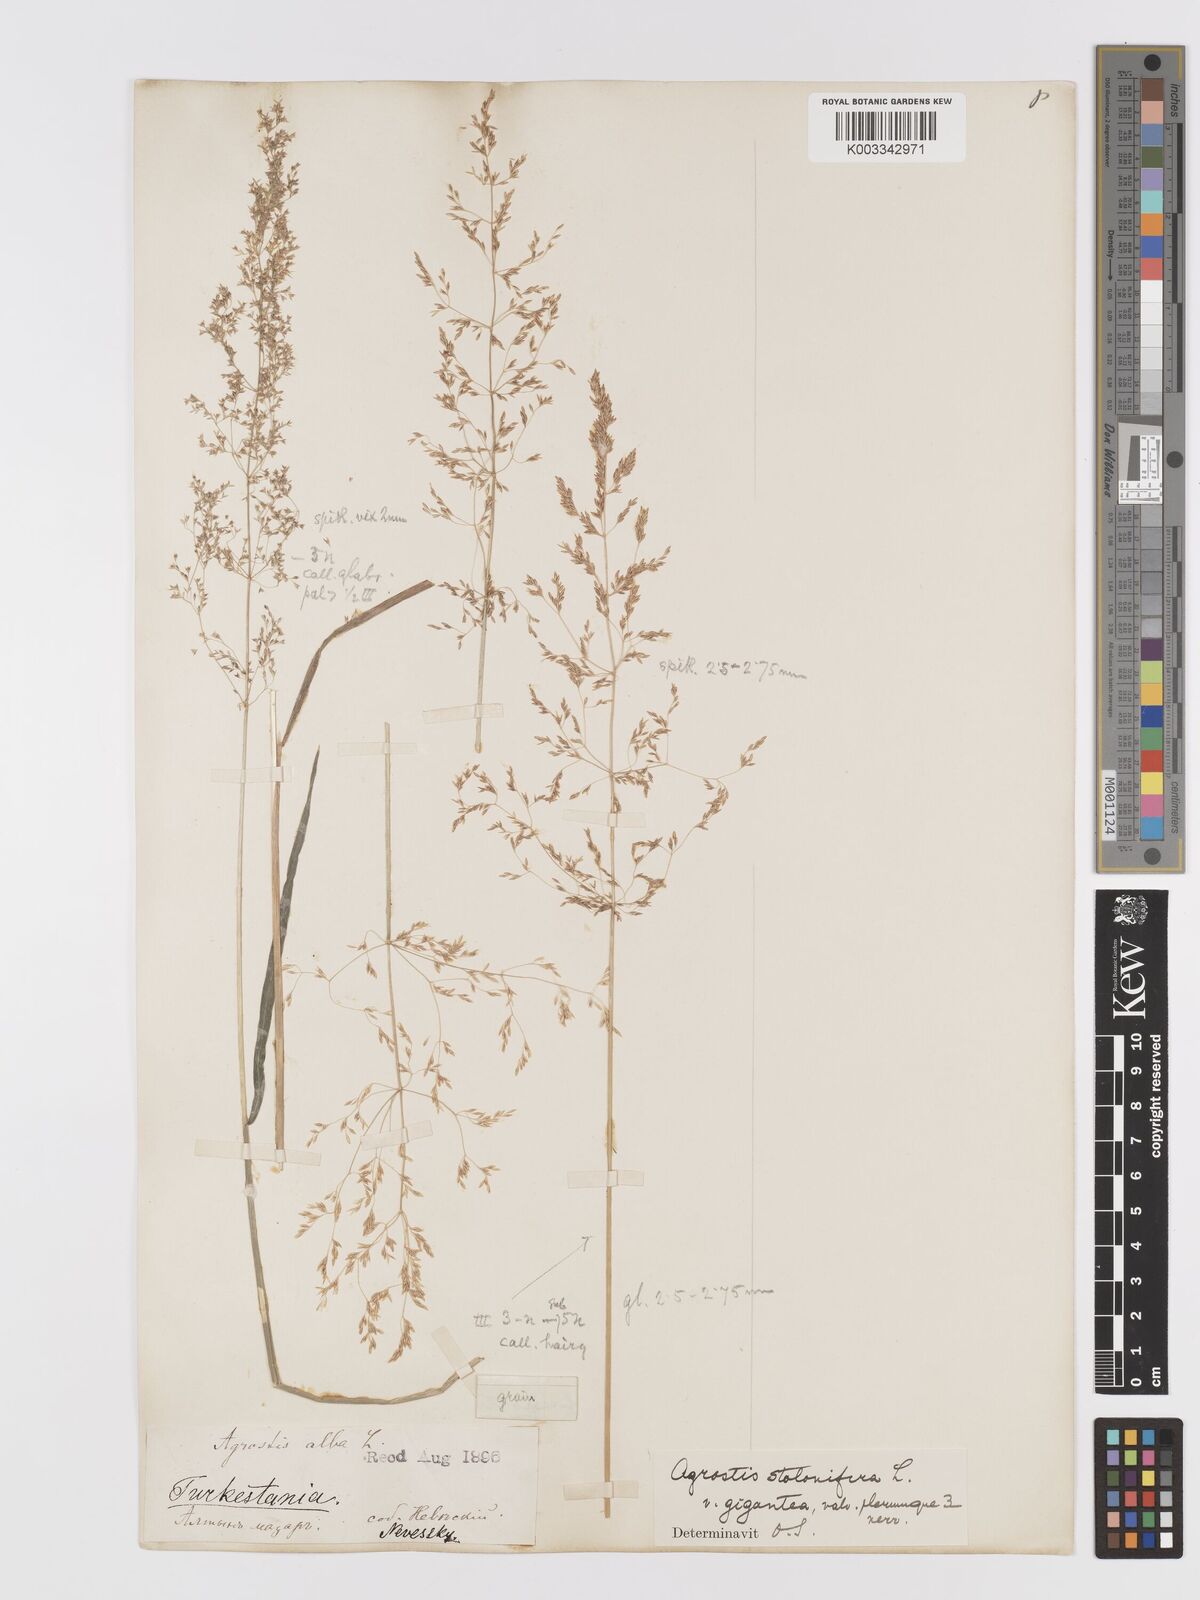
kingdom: Plantae
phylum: Tracheophyta
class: Liliopsida
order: Poales
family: Poaceae
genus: Agrostis
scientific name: Agrostis stolonifera
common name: Creeping bentgrass
